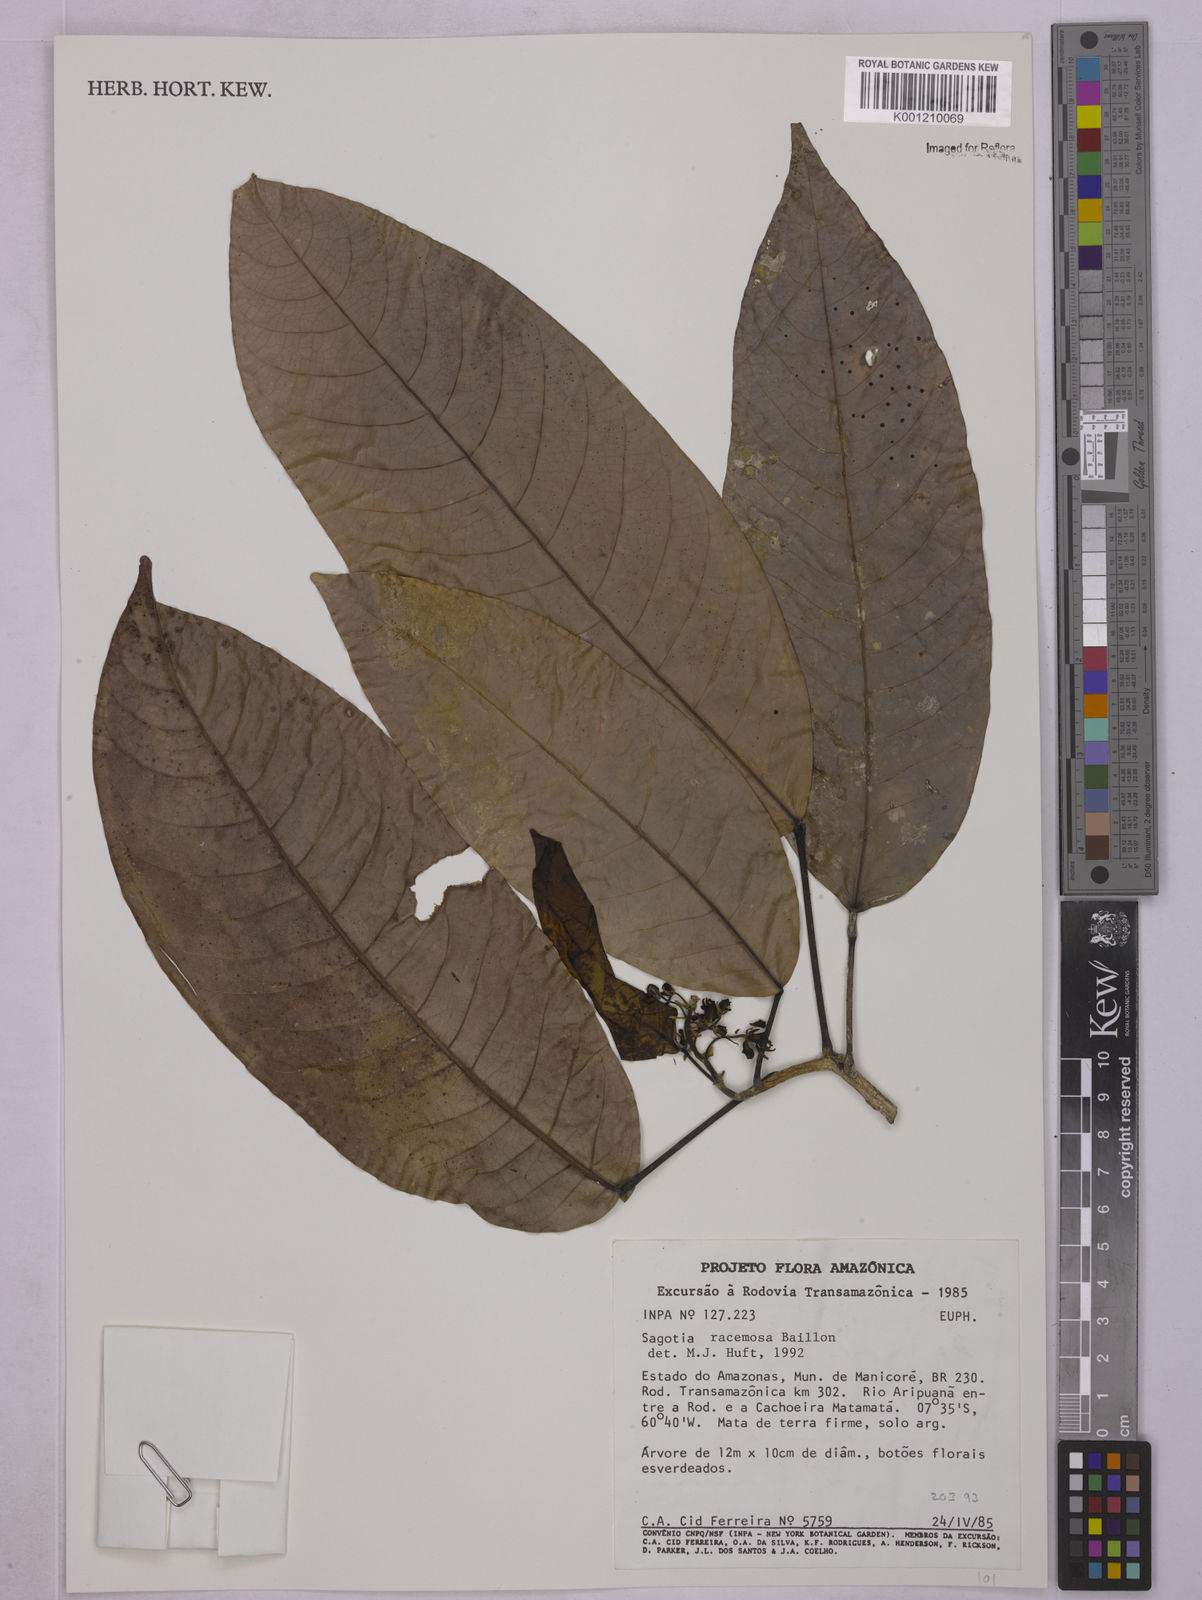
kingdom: Plantae
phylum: Tracheophyta
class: Magnoliopsida
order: Malpighiales
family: Euphorbiaceae
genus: Sagotia
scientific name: Sagotia racemosa
